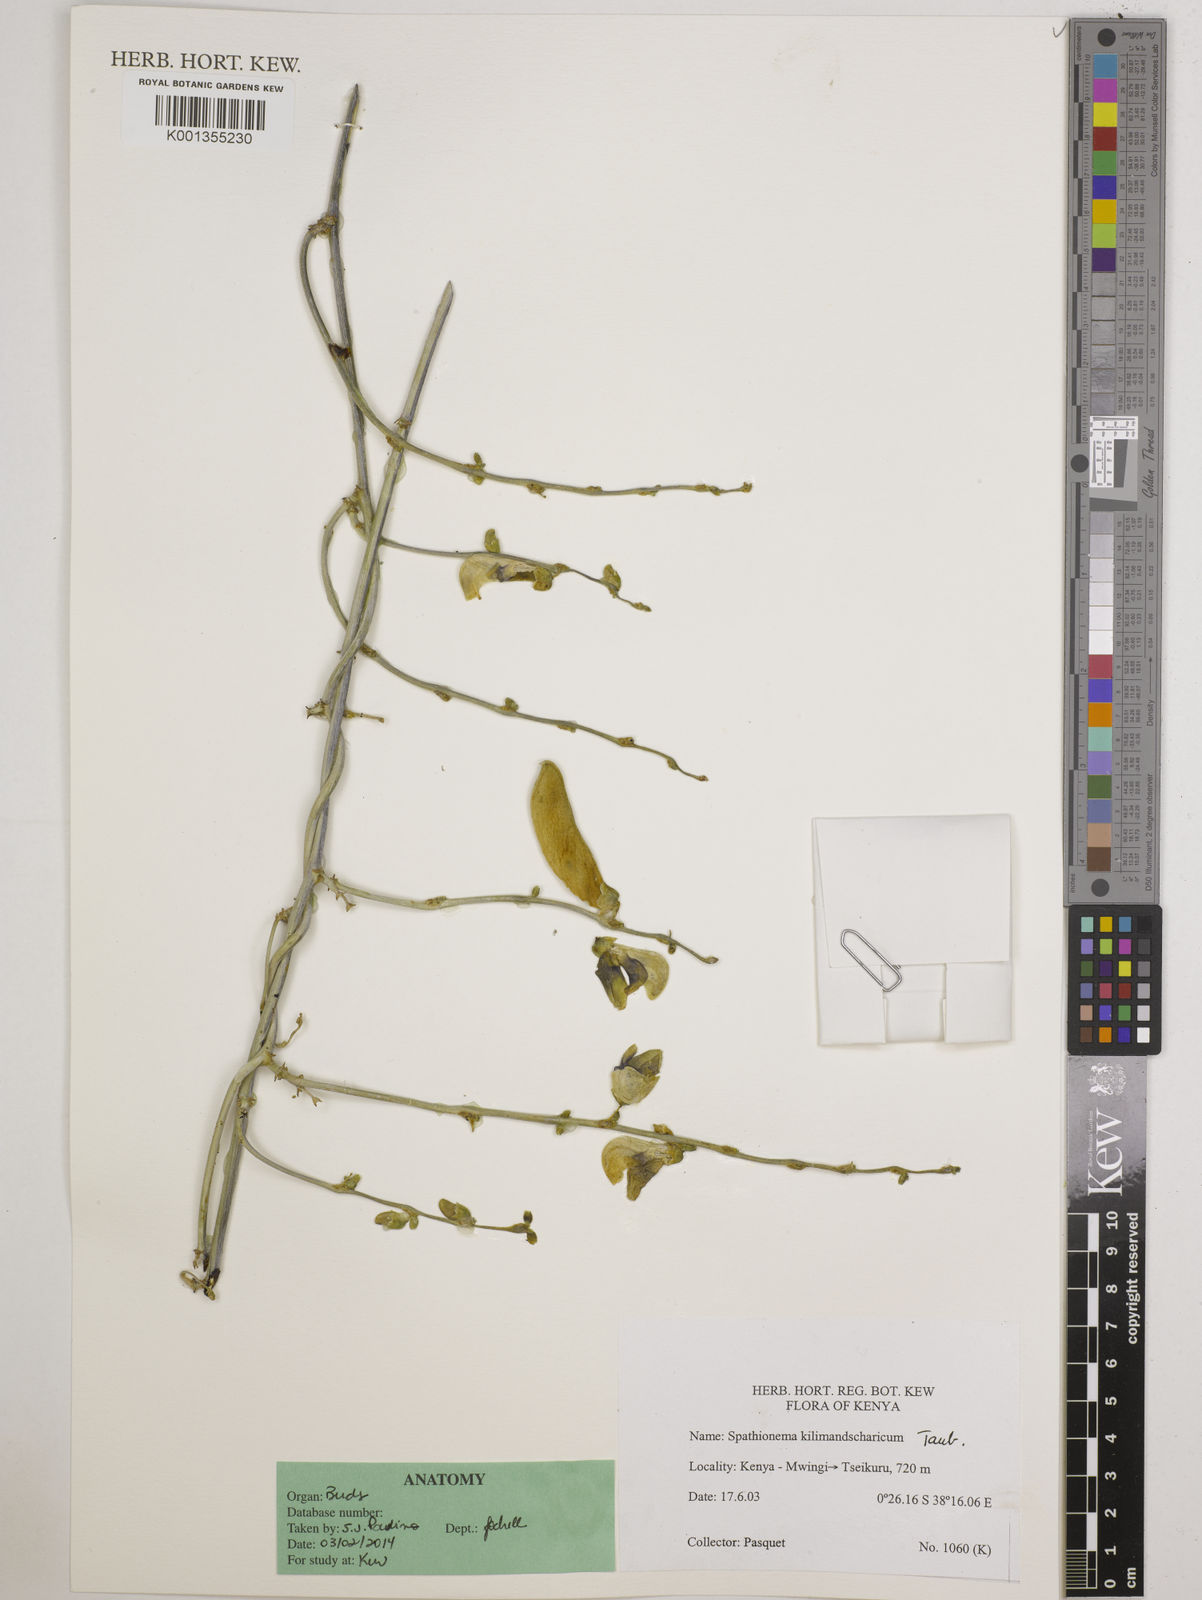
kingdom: Plantae
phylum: Tracheophyta
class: Magnoliopsida
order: Fabales
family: Fabaceae
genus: Spathionema
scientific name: Spathionema kilimandscharicum
